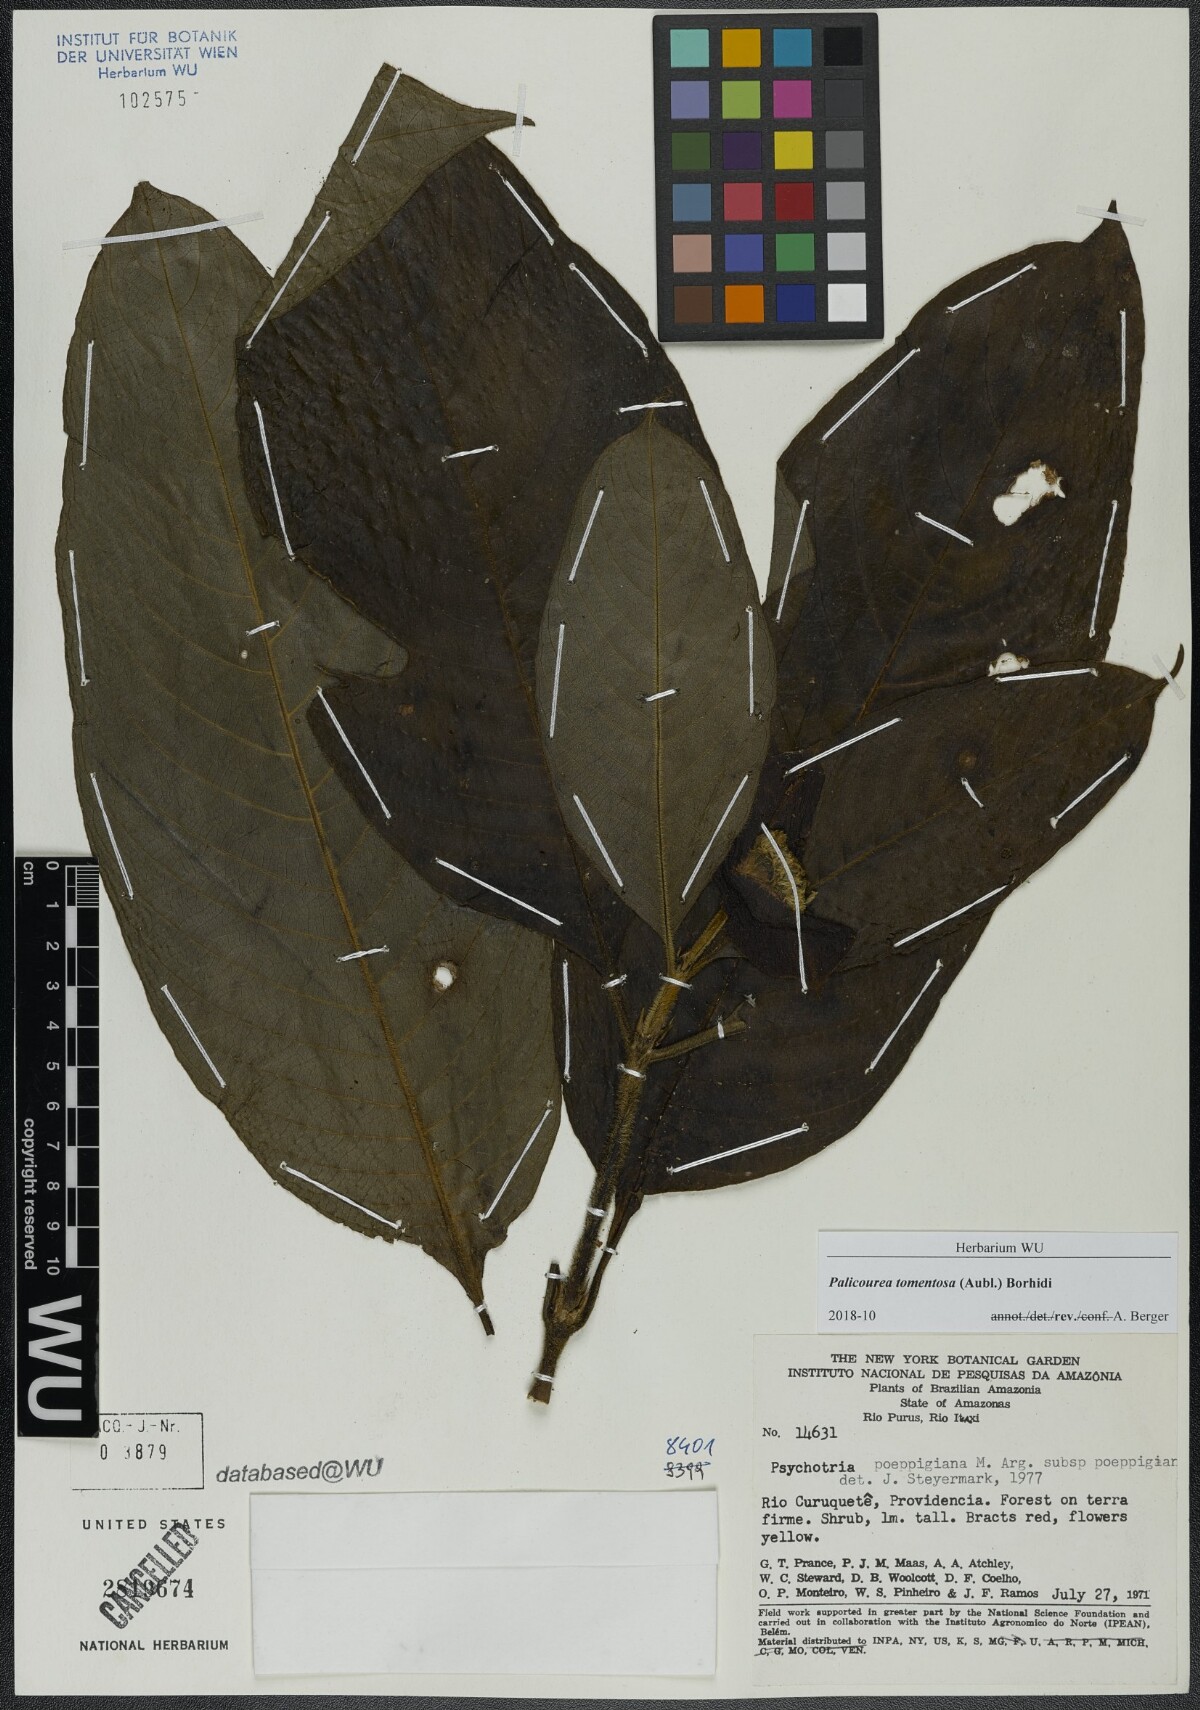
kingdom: Plantae
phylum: Tracheophyta
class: Magnoliopsida
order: Gentianales
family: Rubiaceae
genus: Palicourea
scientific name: Palicourea tomentosa
